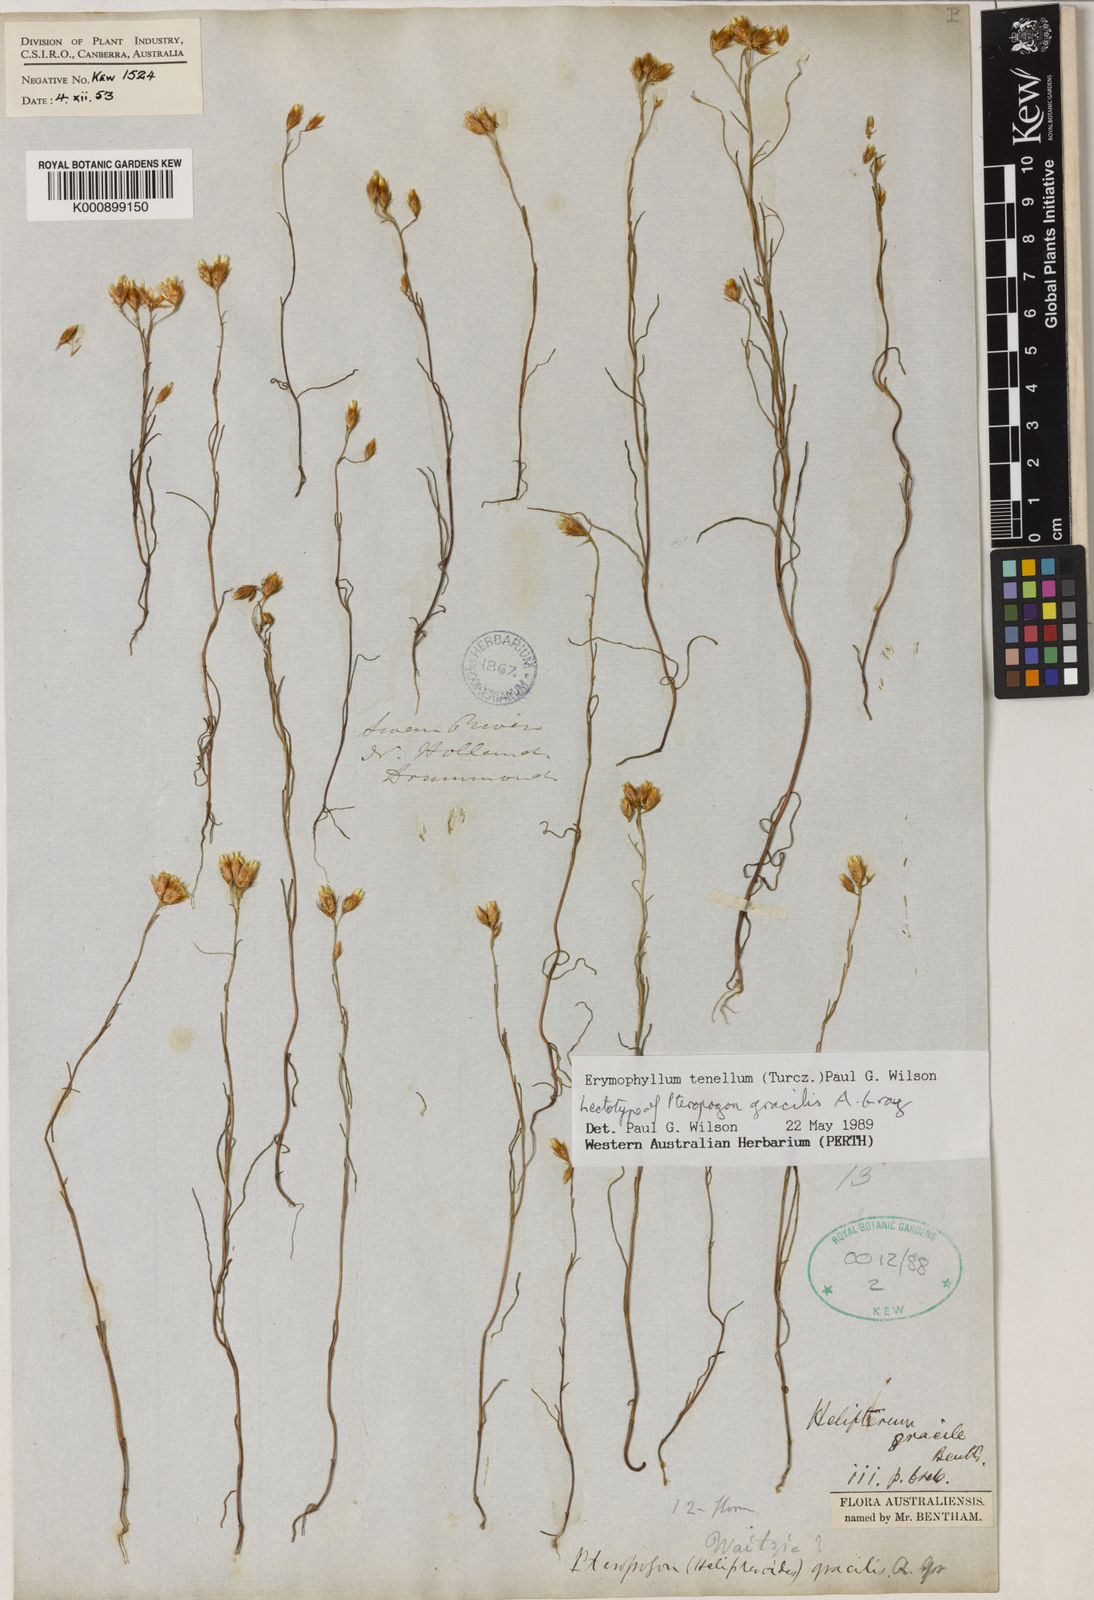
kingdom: Plantae
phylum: Tracheophyta
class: Magnoliopsida
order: Asterales
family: Asteraceae
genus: Erymophyllum
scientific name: Erymophyllum tenellum
